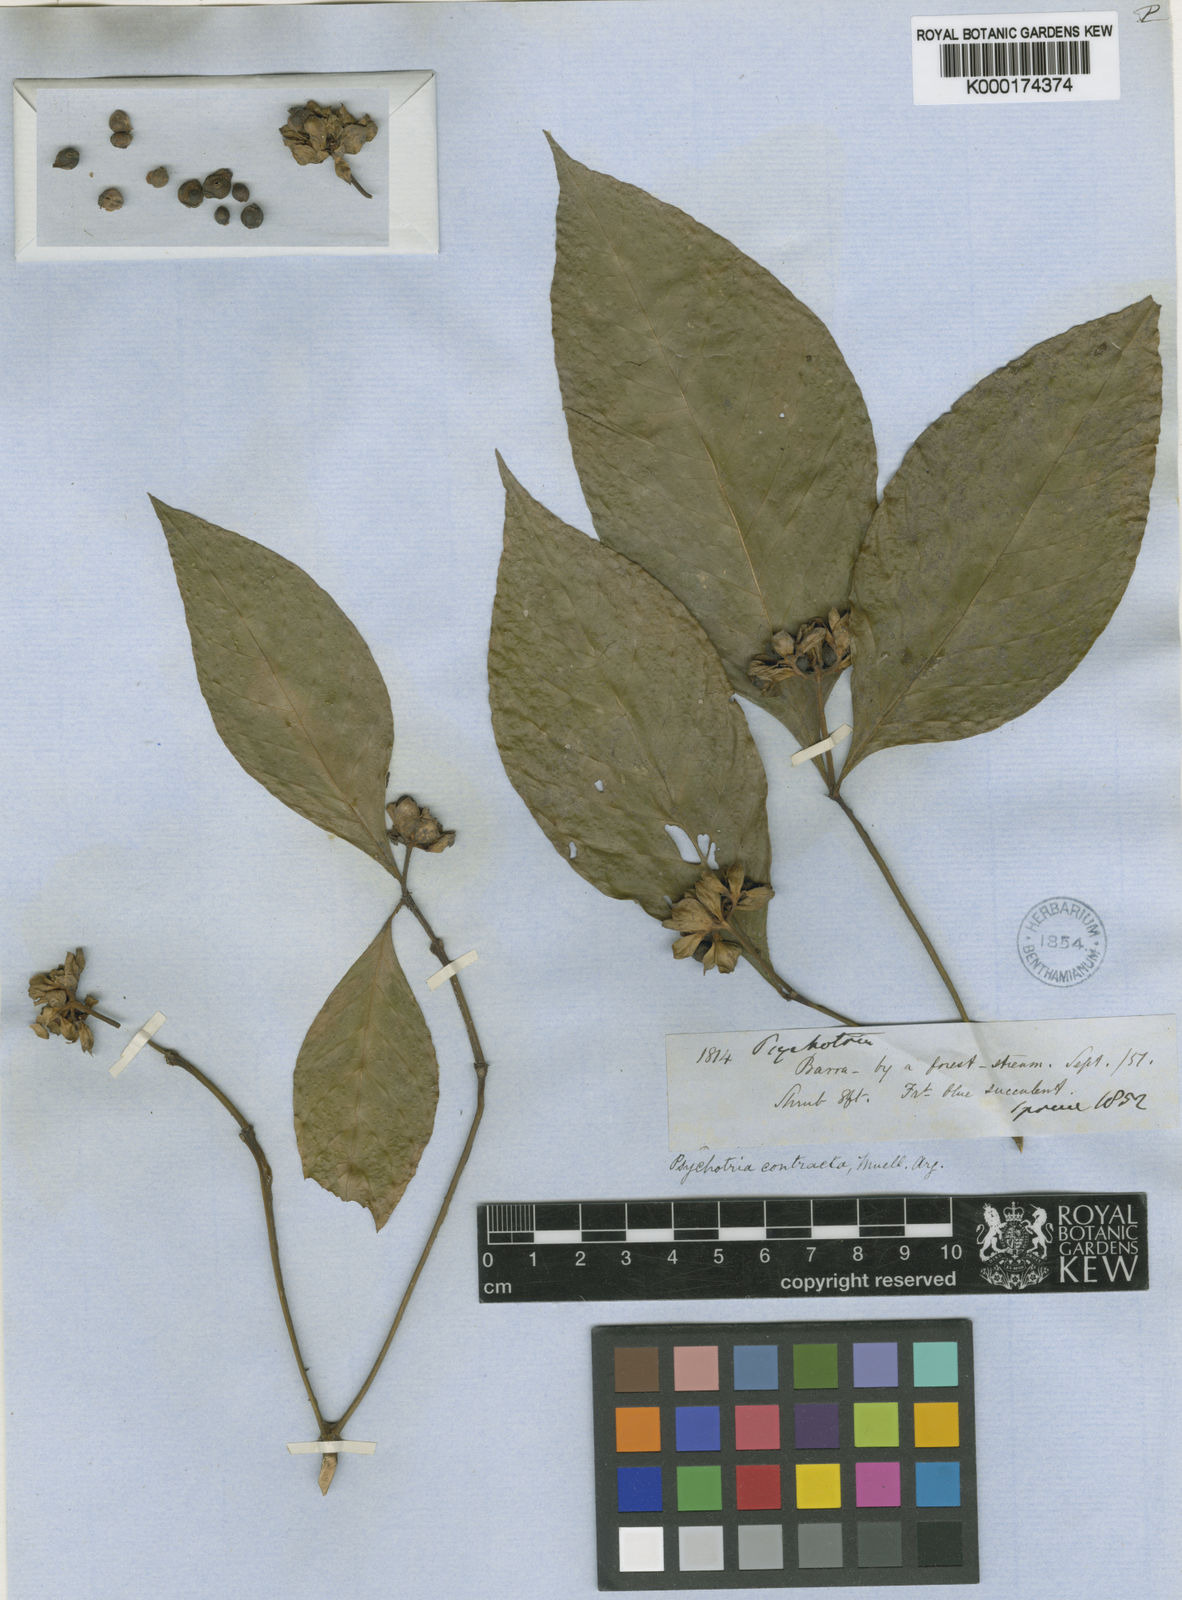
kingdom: Plantae
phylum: Tracheophyta
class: Magnoliopsida
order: Gentianales
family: Rubiaceae
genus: Psychotria
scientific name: Psychotria
